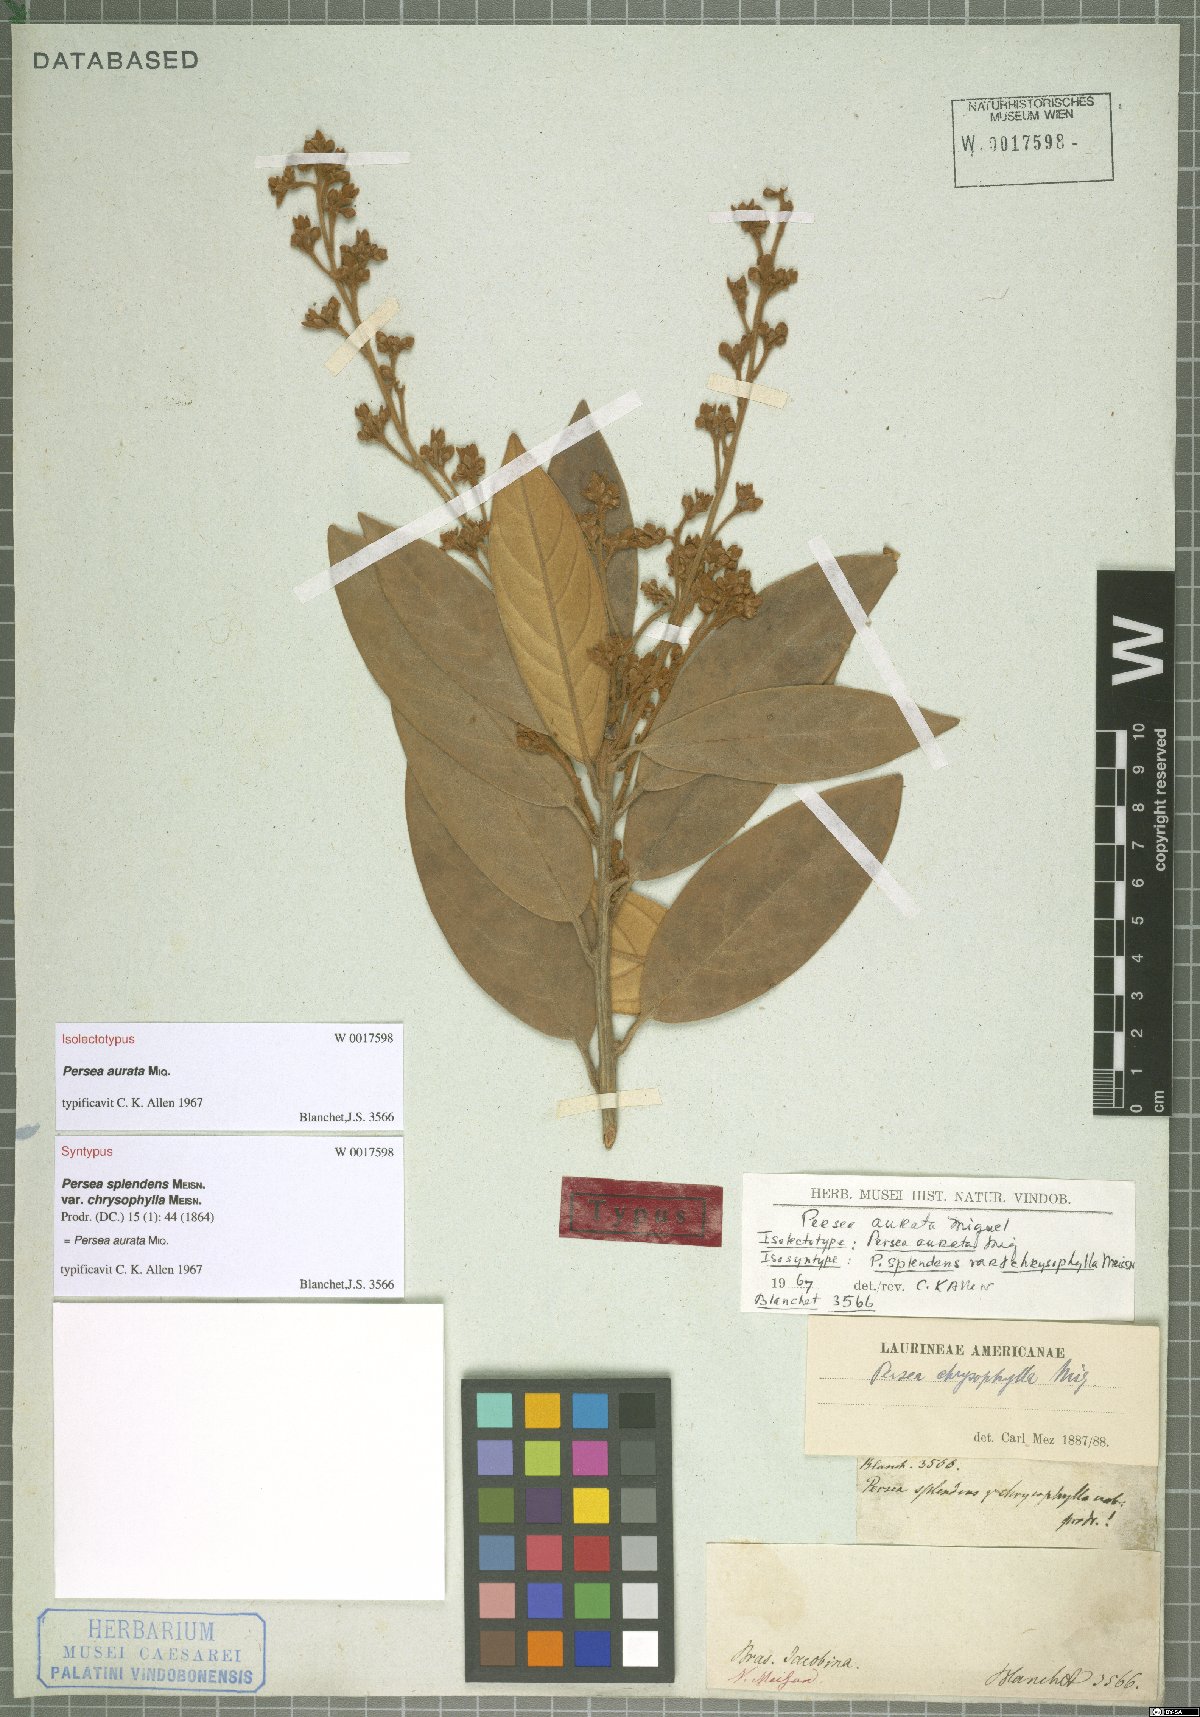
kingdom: Plantae
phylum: Tracheophyta
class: Magnoliopsida
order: Laurales
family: Lauraceae
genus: Persea
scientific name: Persea aurata
